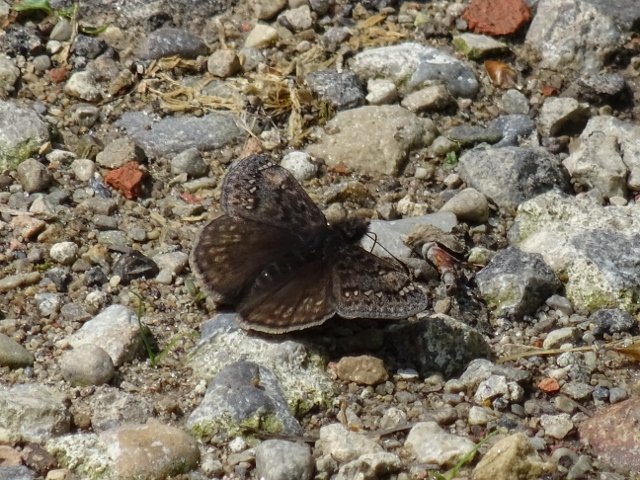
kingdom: Animalia
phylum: Arthropoda
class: Insecta
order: Lepidoptera
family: Hesperiidae
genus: Gesta
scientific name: Gesta
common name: Juvenal's Duskywing
